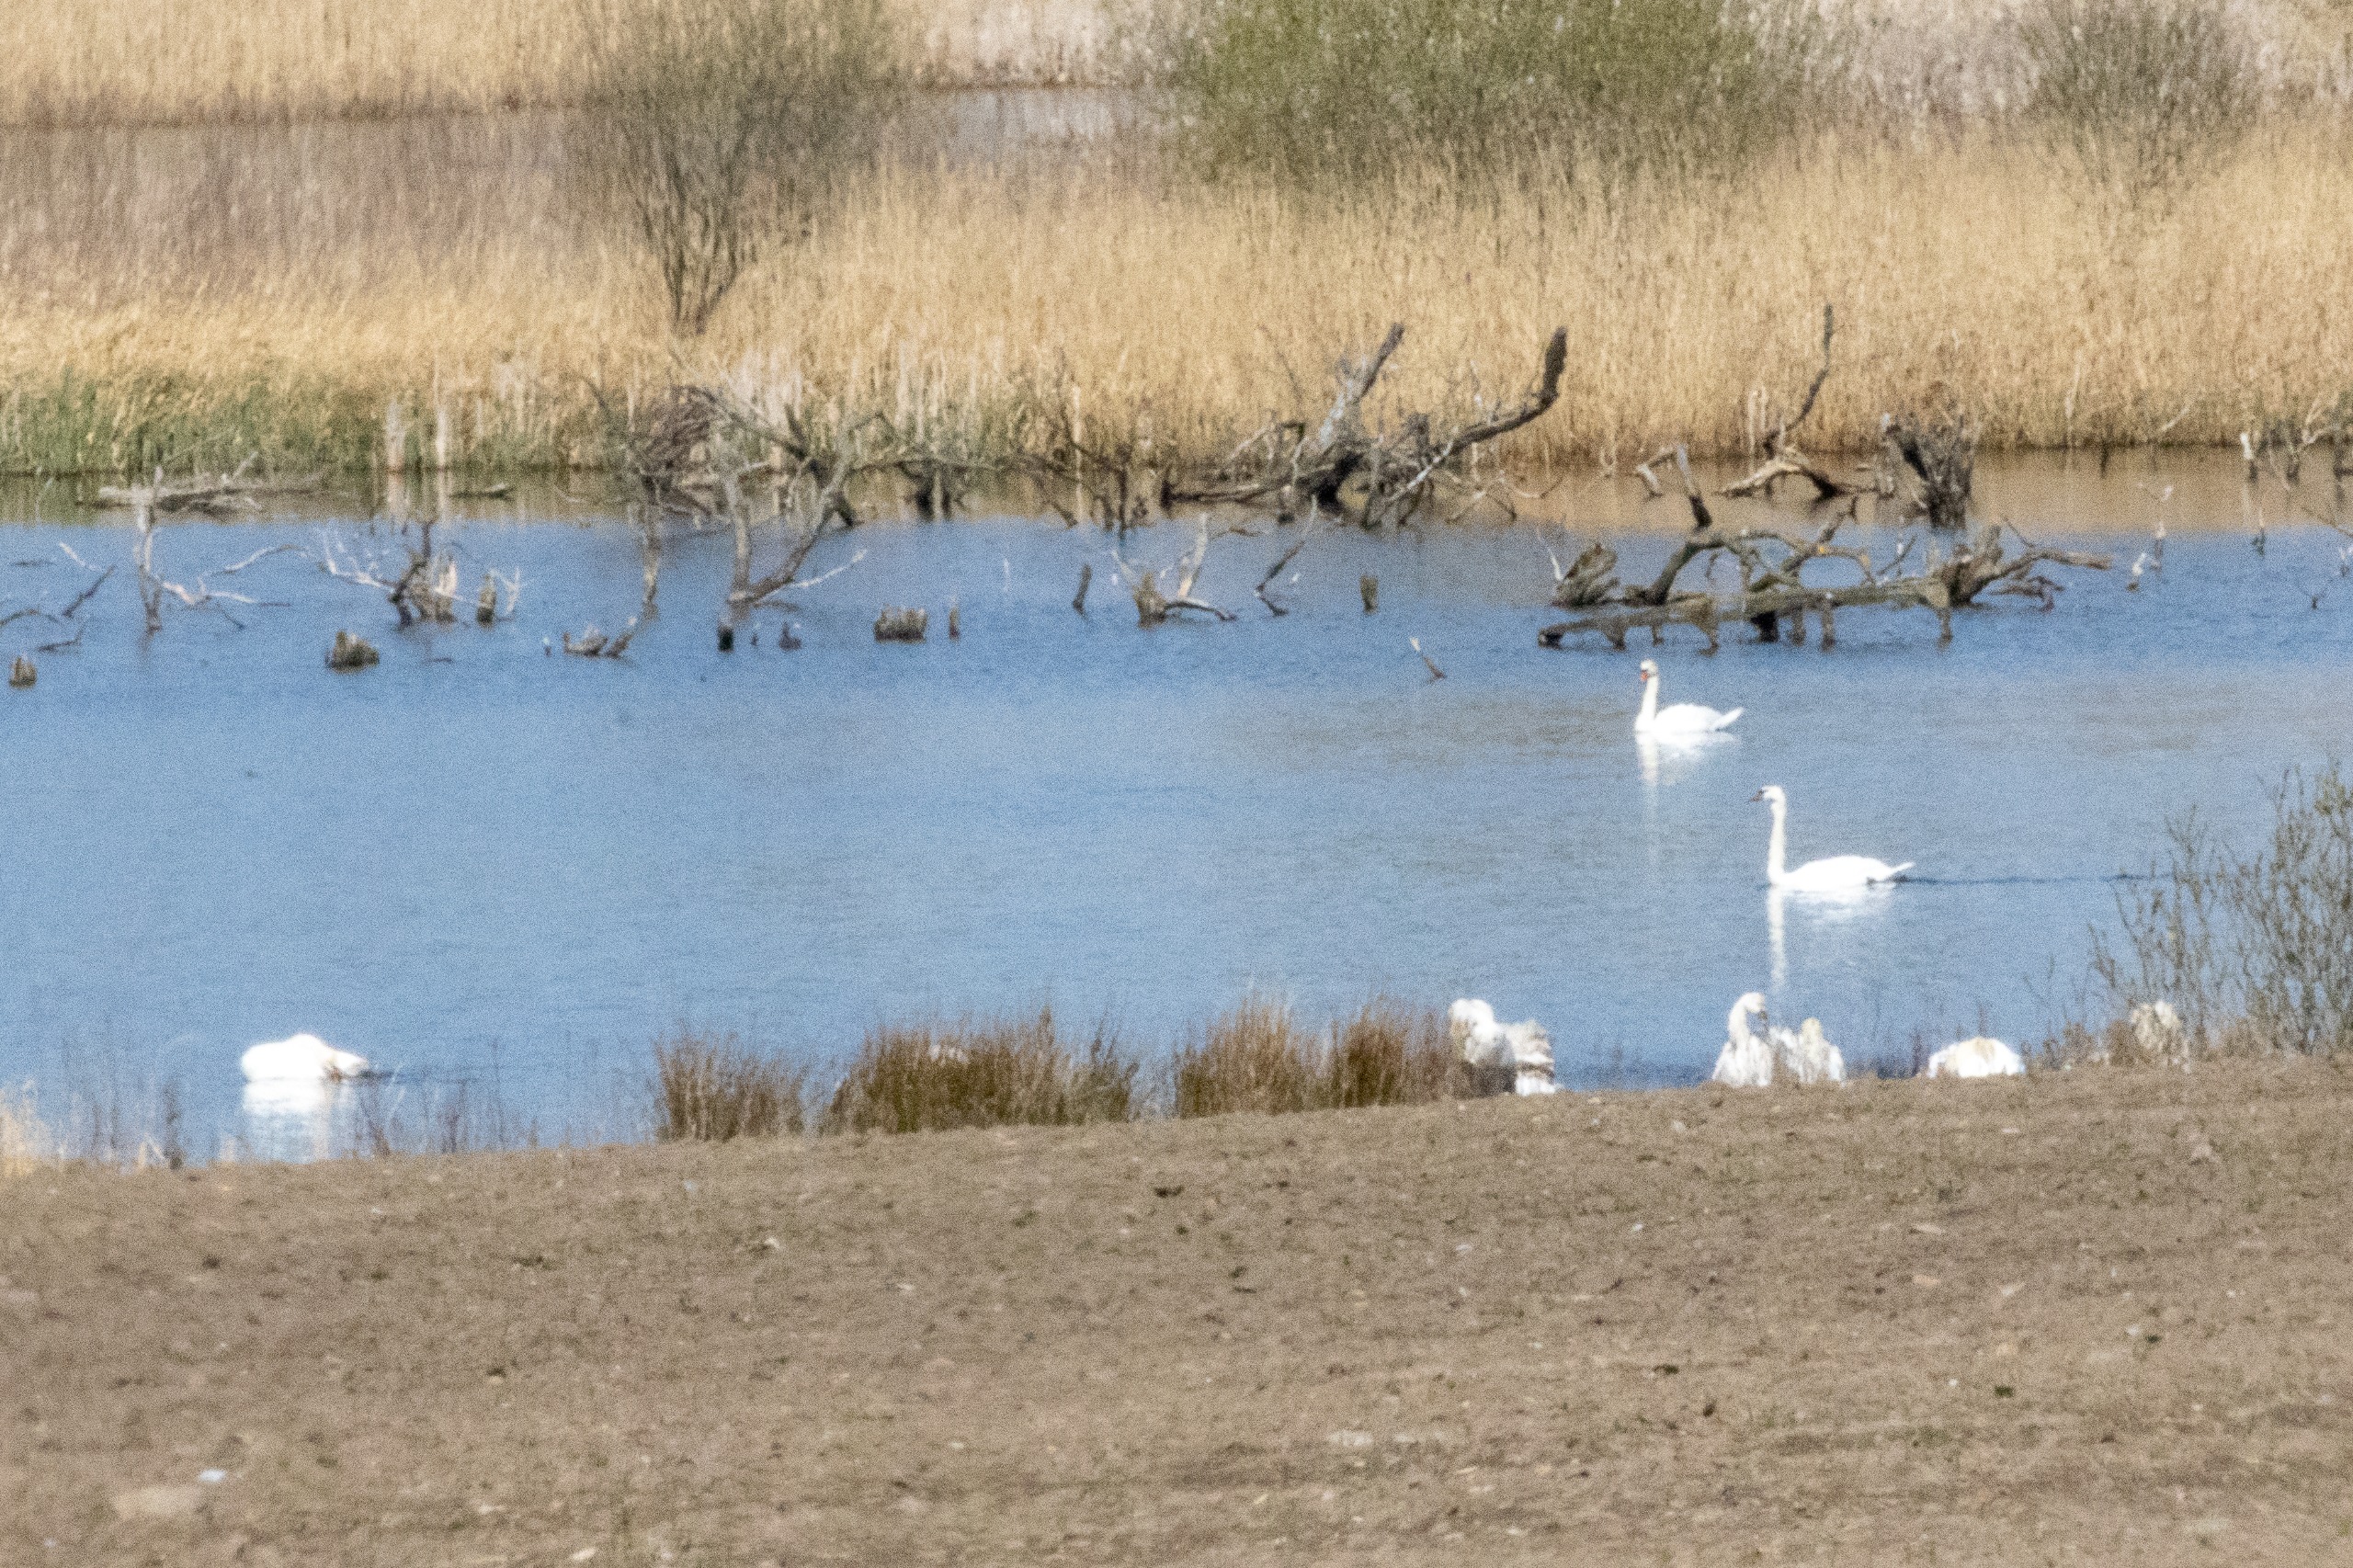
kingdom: Animalia
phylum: Chordata
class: Aves
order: Anseriformes
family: Anatidae
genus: Cygnus
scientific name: Cygnus olor
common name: Knopsvane
